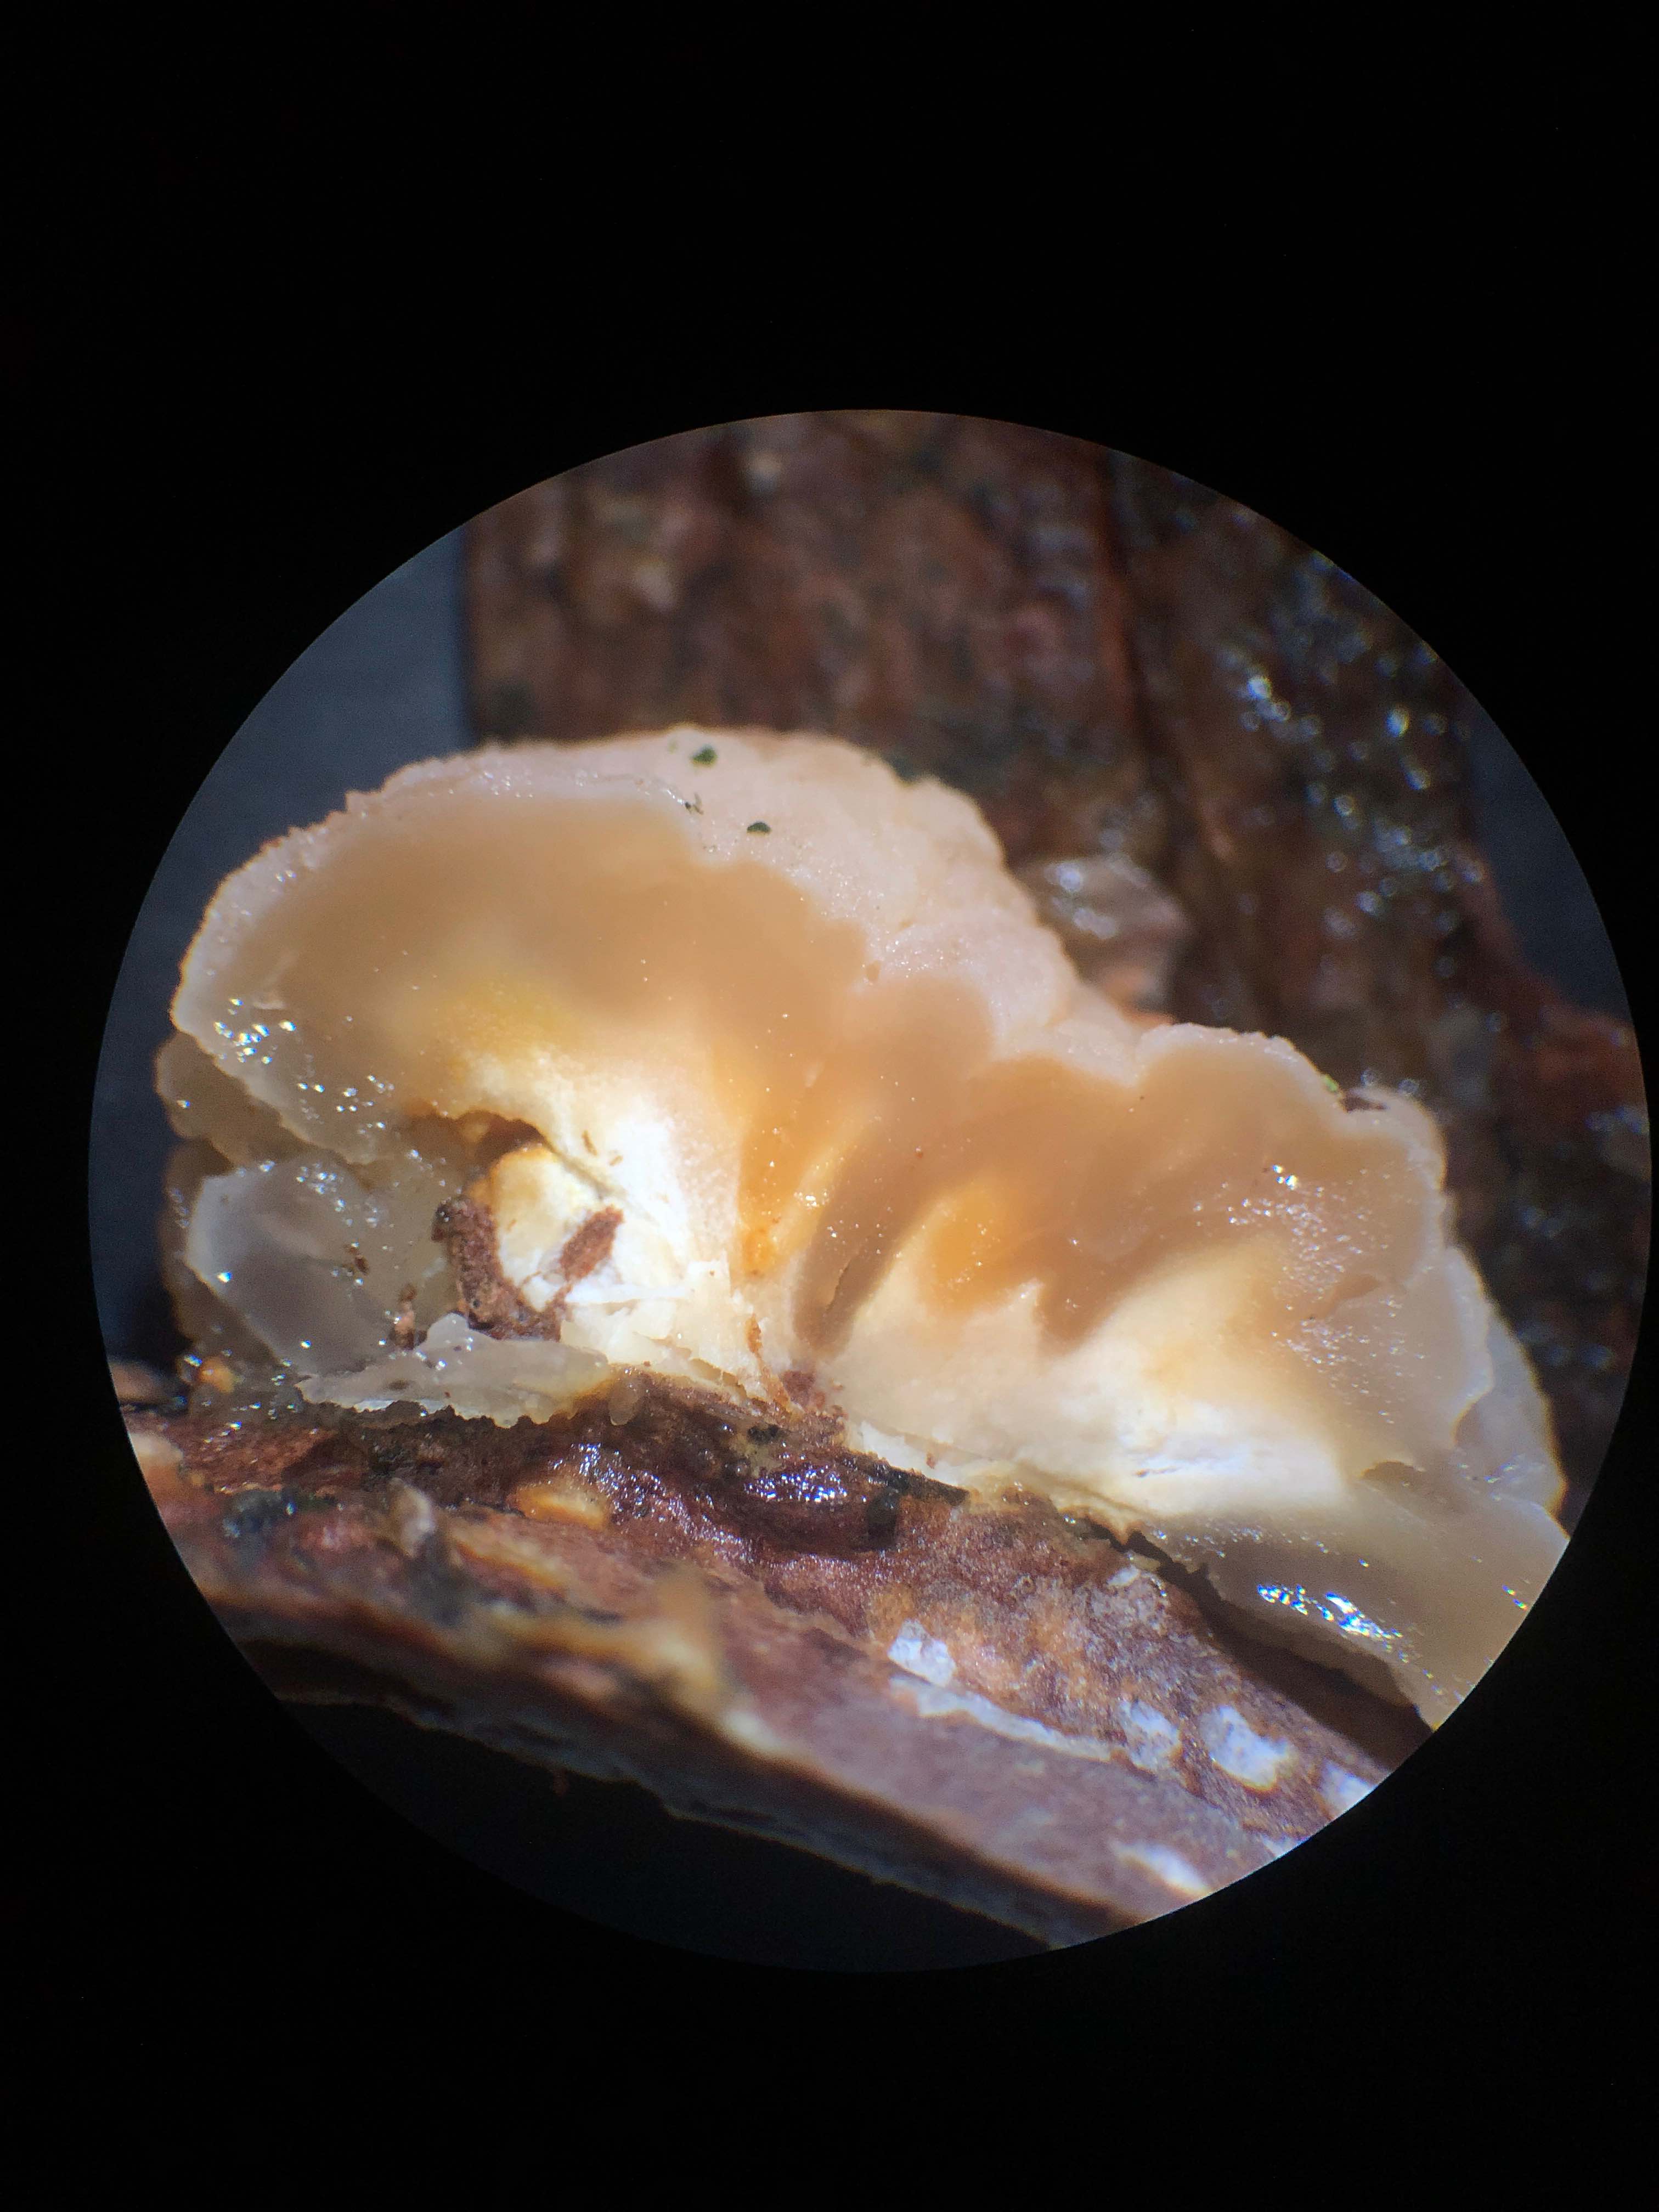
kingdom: Fungi
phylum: Basidiomycota
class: Tremellomycetes
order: Tremellales
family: Naemateliaceae
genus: Naematelia
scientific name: Naematelia encephala
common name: fyrre-bævresvamp
